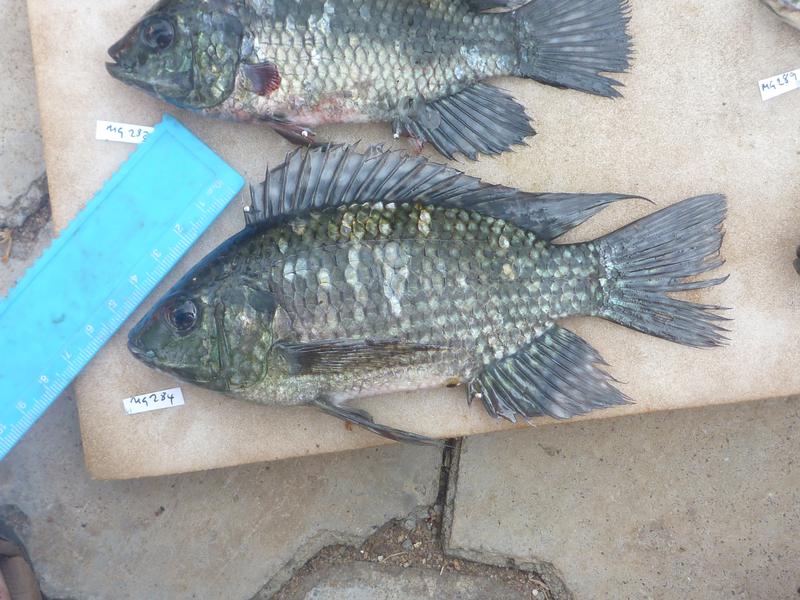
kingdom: Animalia
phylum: Chordata
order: Perciformes
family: Cichlidae
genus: Oreochromis
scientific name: Oreochromis leucostictus
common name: Blue spotted tilapia
